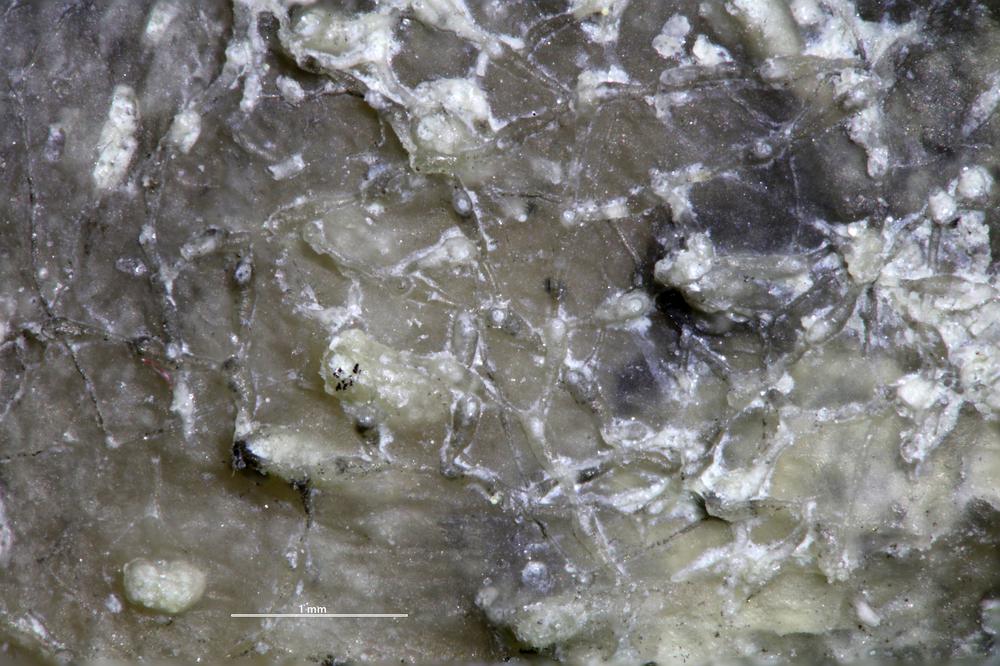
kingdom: Animalia
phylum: Bryozoa
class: Stenolaemata
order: Cyclostomatida
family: Corynotrypidae
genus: Corynotrypa
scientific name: Corynotrypa
